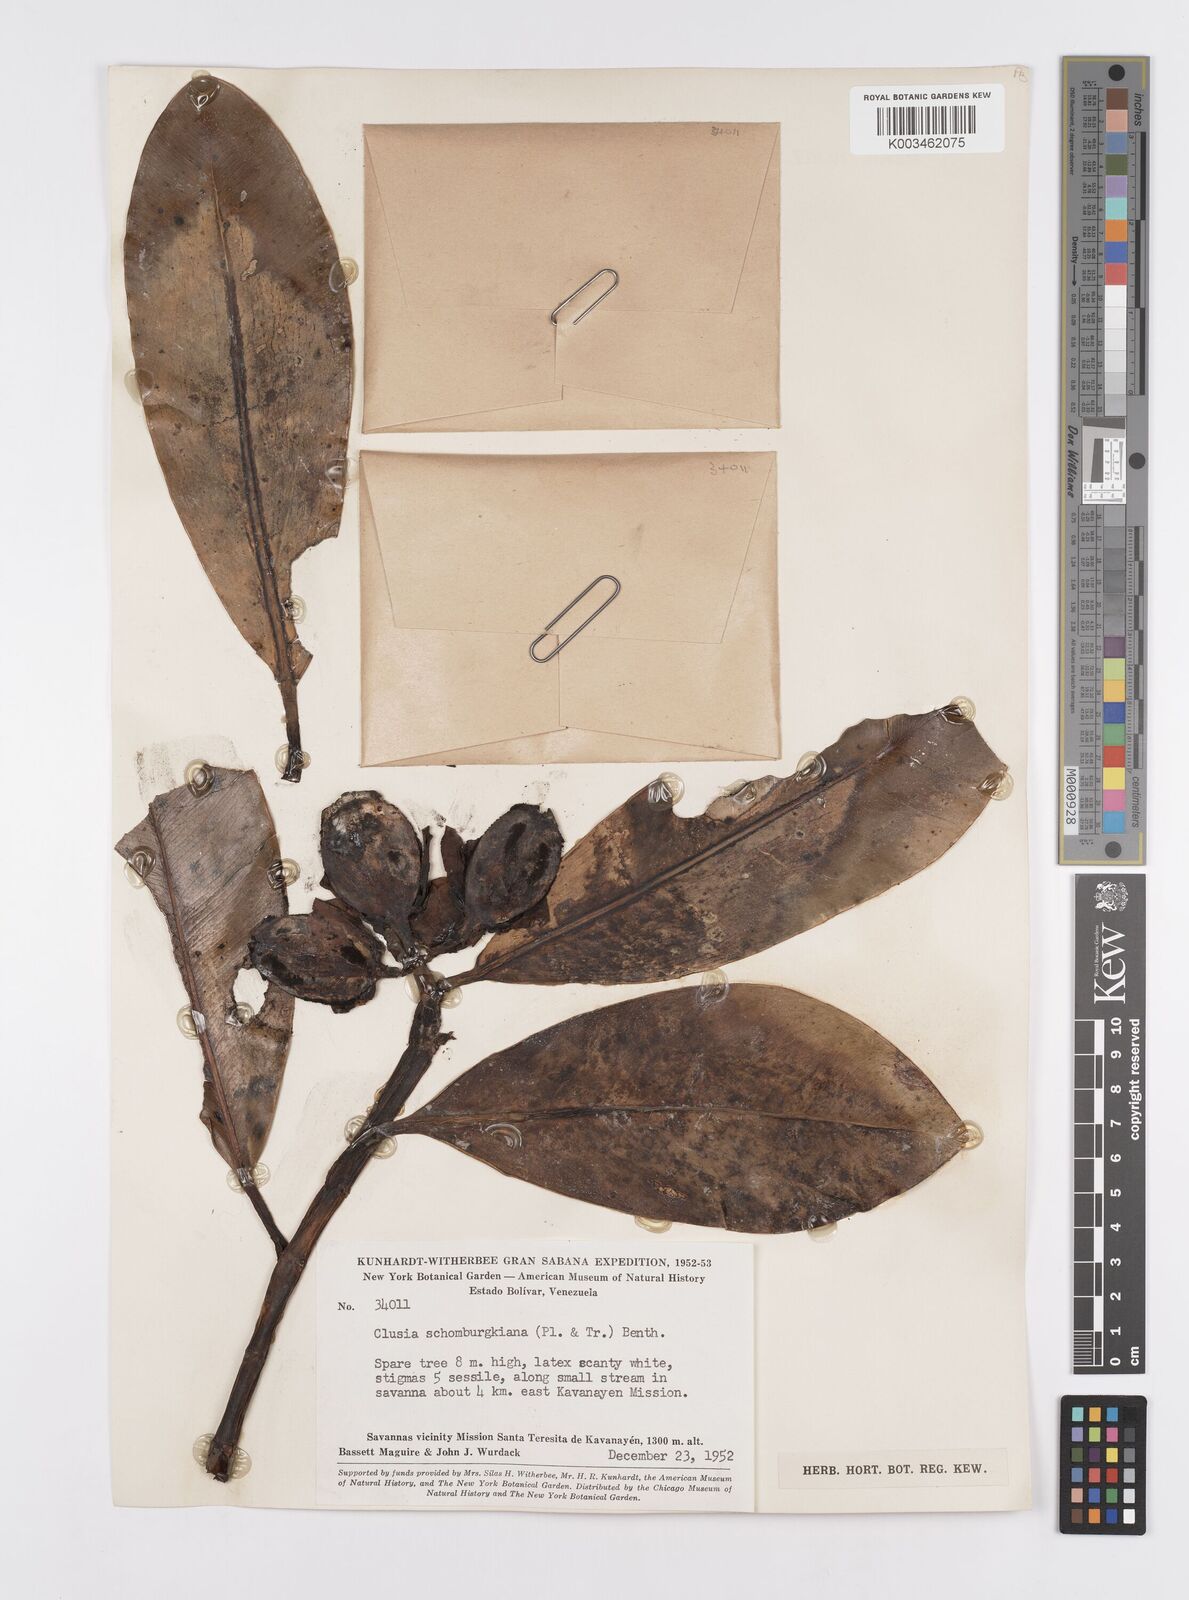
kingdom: Plantae
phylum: Tracheophyta
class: Magnoliopsida
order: Malpighiales
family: Clusiaceae
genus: Clusia
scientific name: Clusia schomburgkiana
